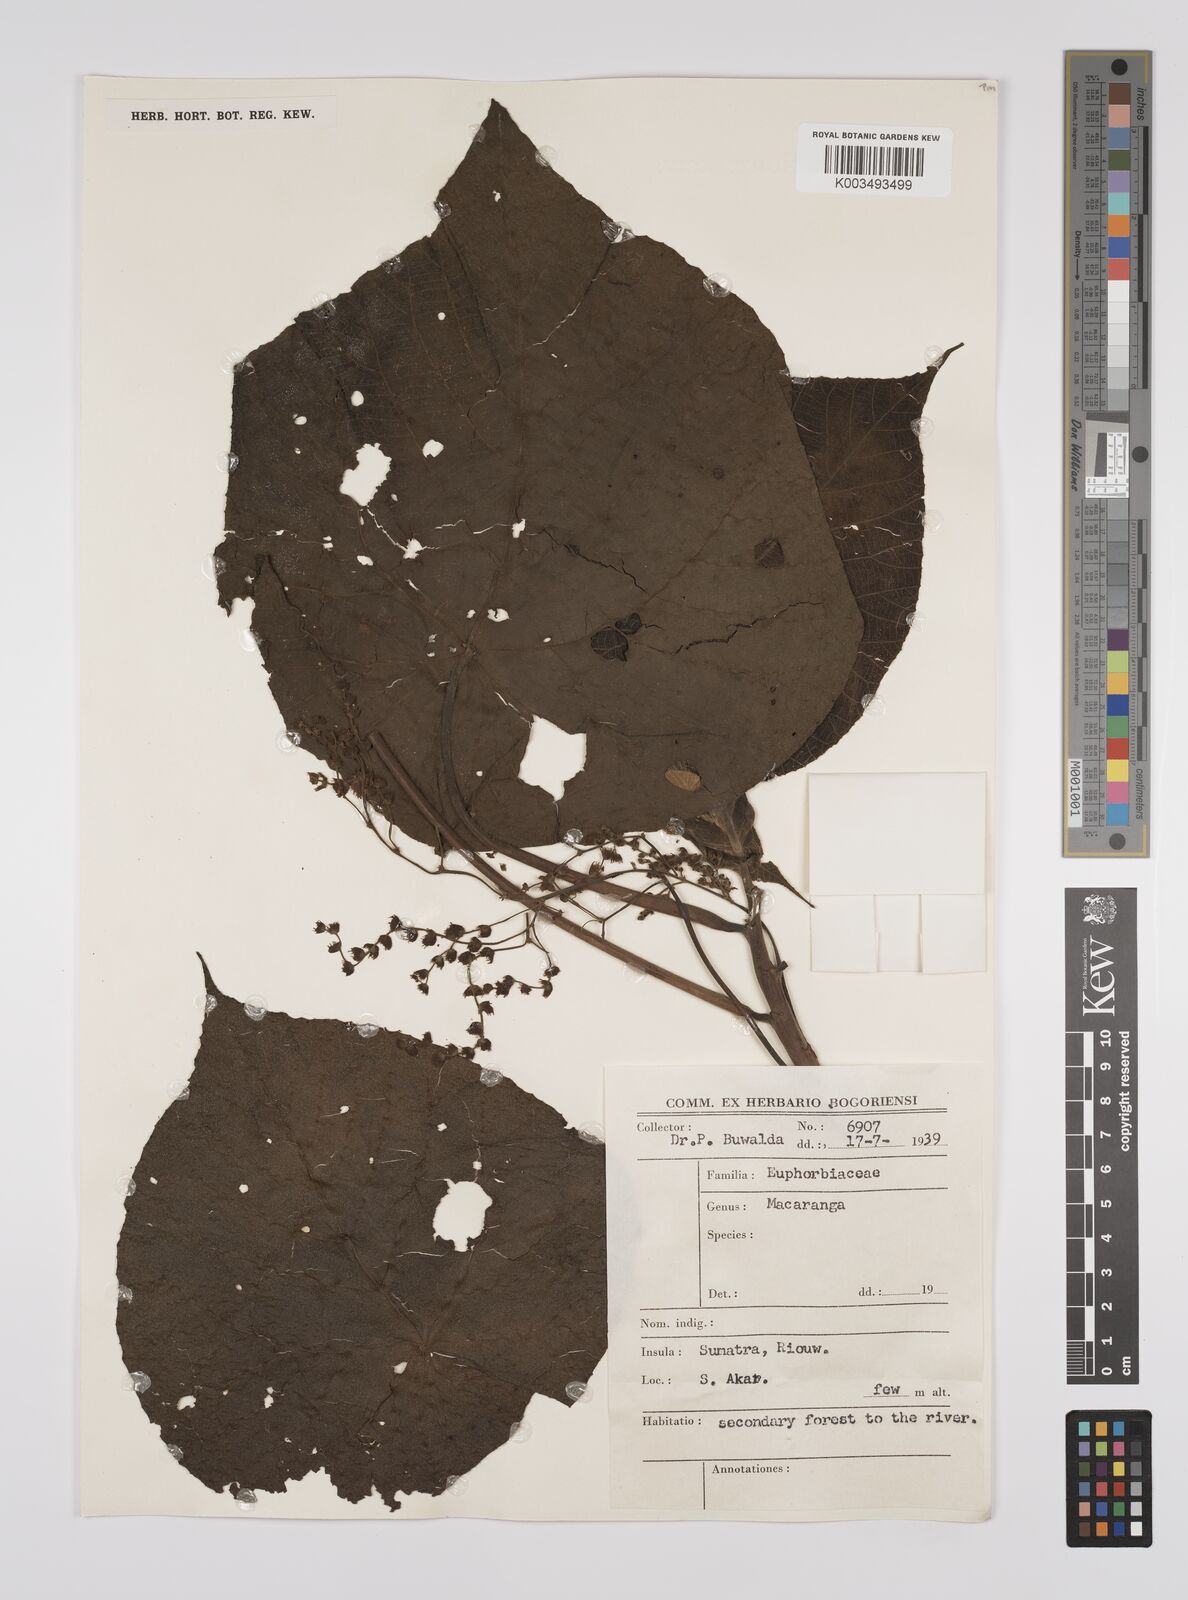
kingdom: Plantae
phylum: Tracheophyta
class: Magnoliopsida
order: Malpighiales
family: Euphorbiaceae
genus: Macaranga
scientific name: Macaranga tanarius
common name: Parasol leaf tree
